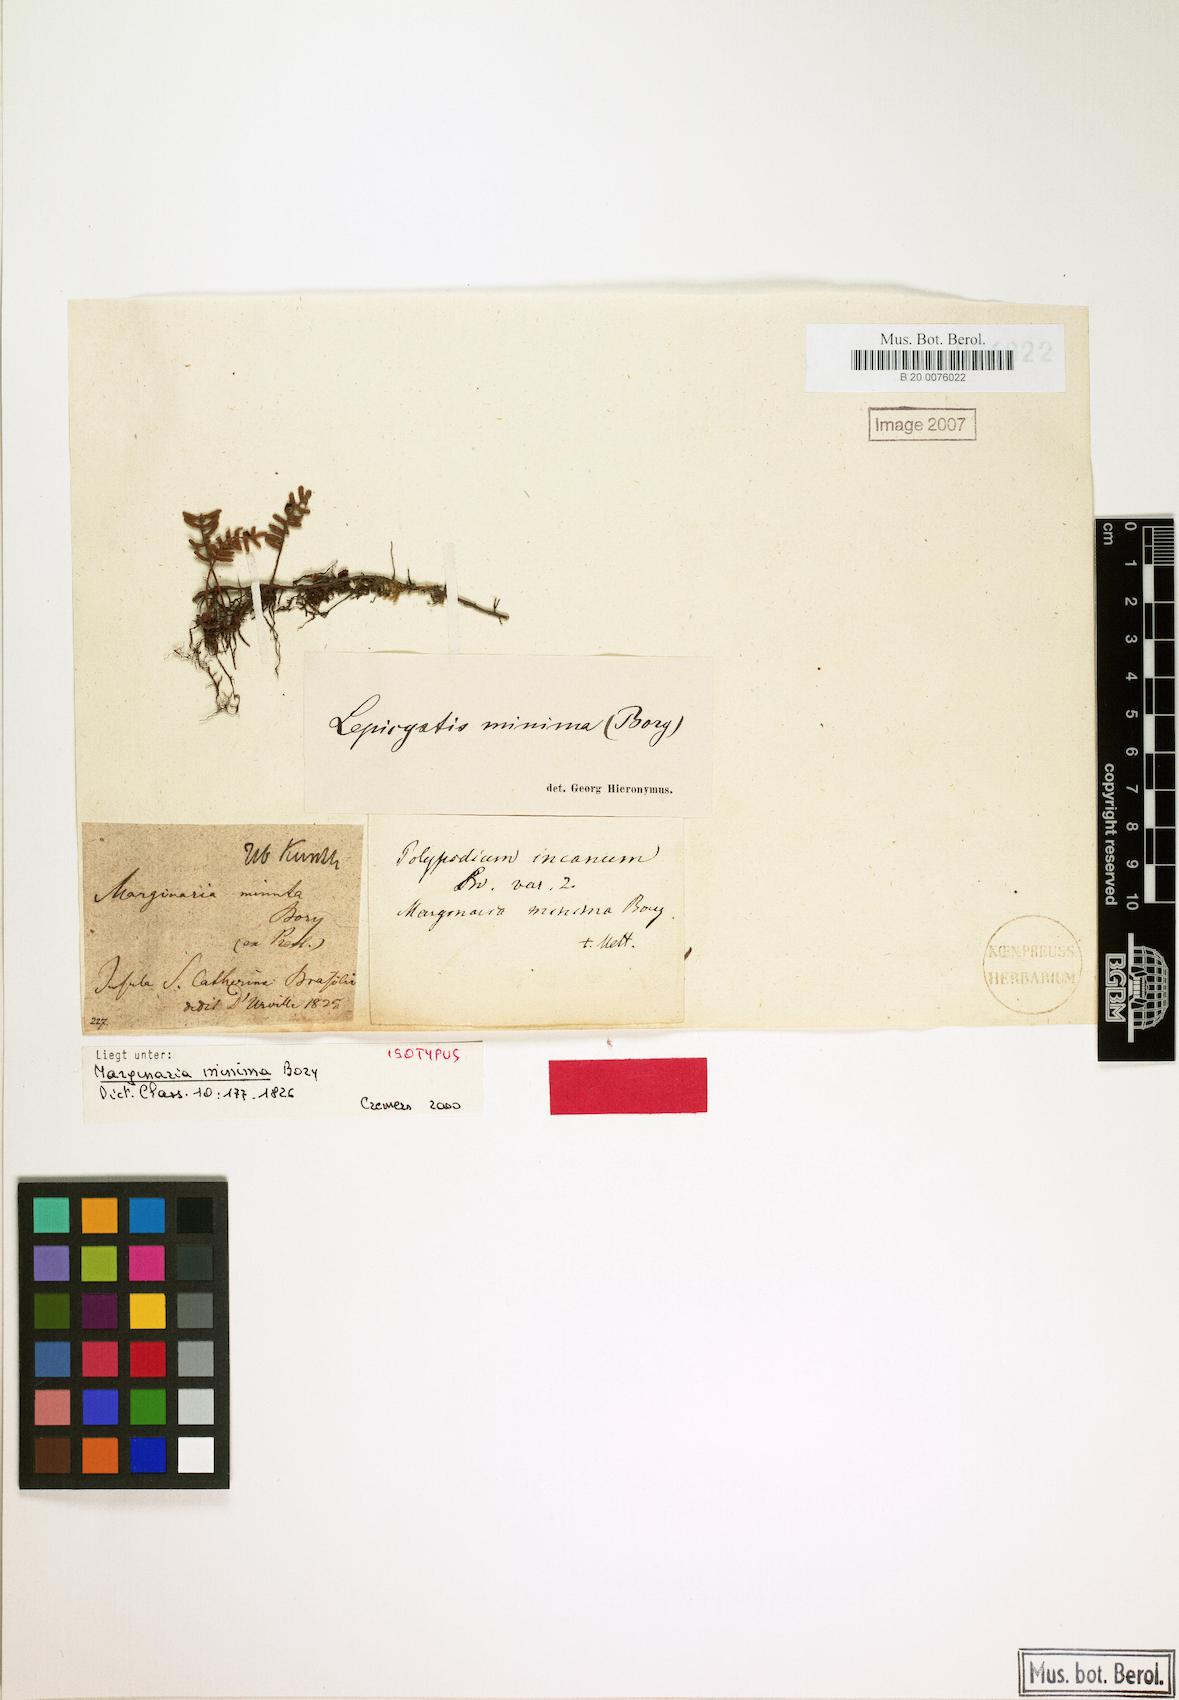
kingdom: Plantae
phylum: Tracheophyta
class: Polypodiopsida
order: Polypodiales
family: Polypodiaceae
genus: Pleopeltis
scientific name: Pleopeltis minima
